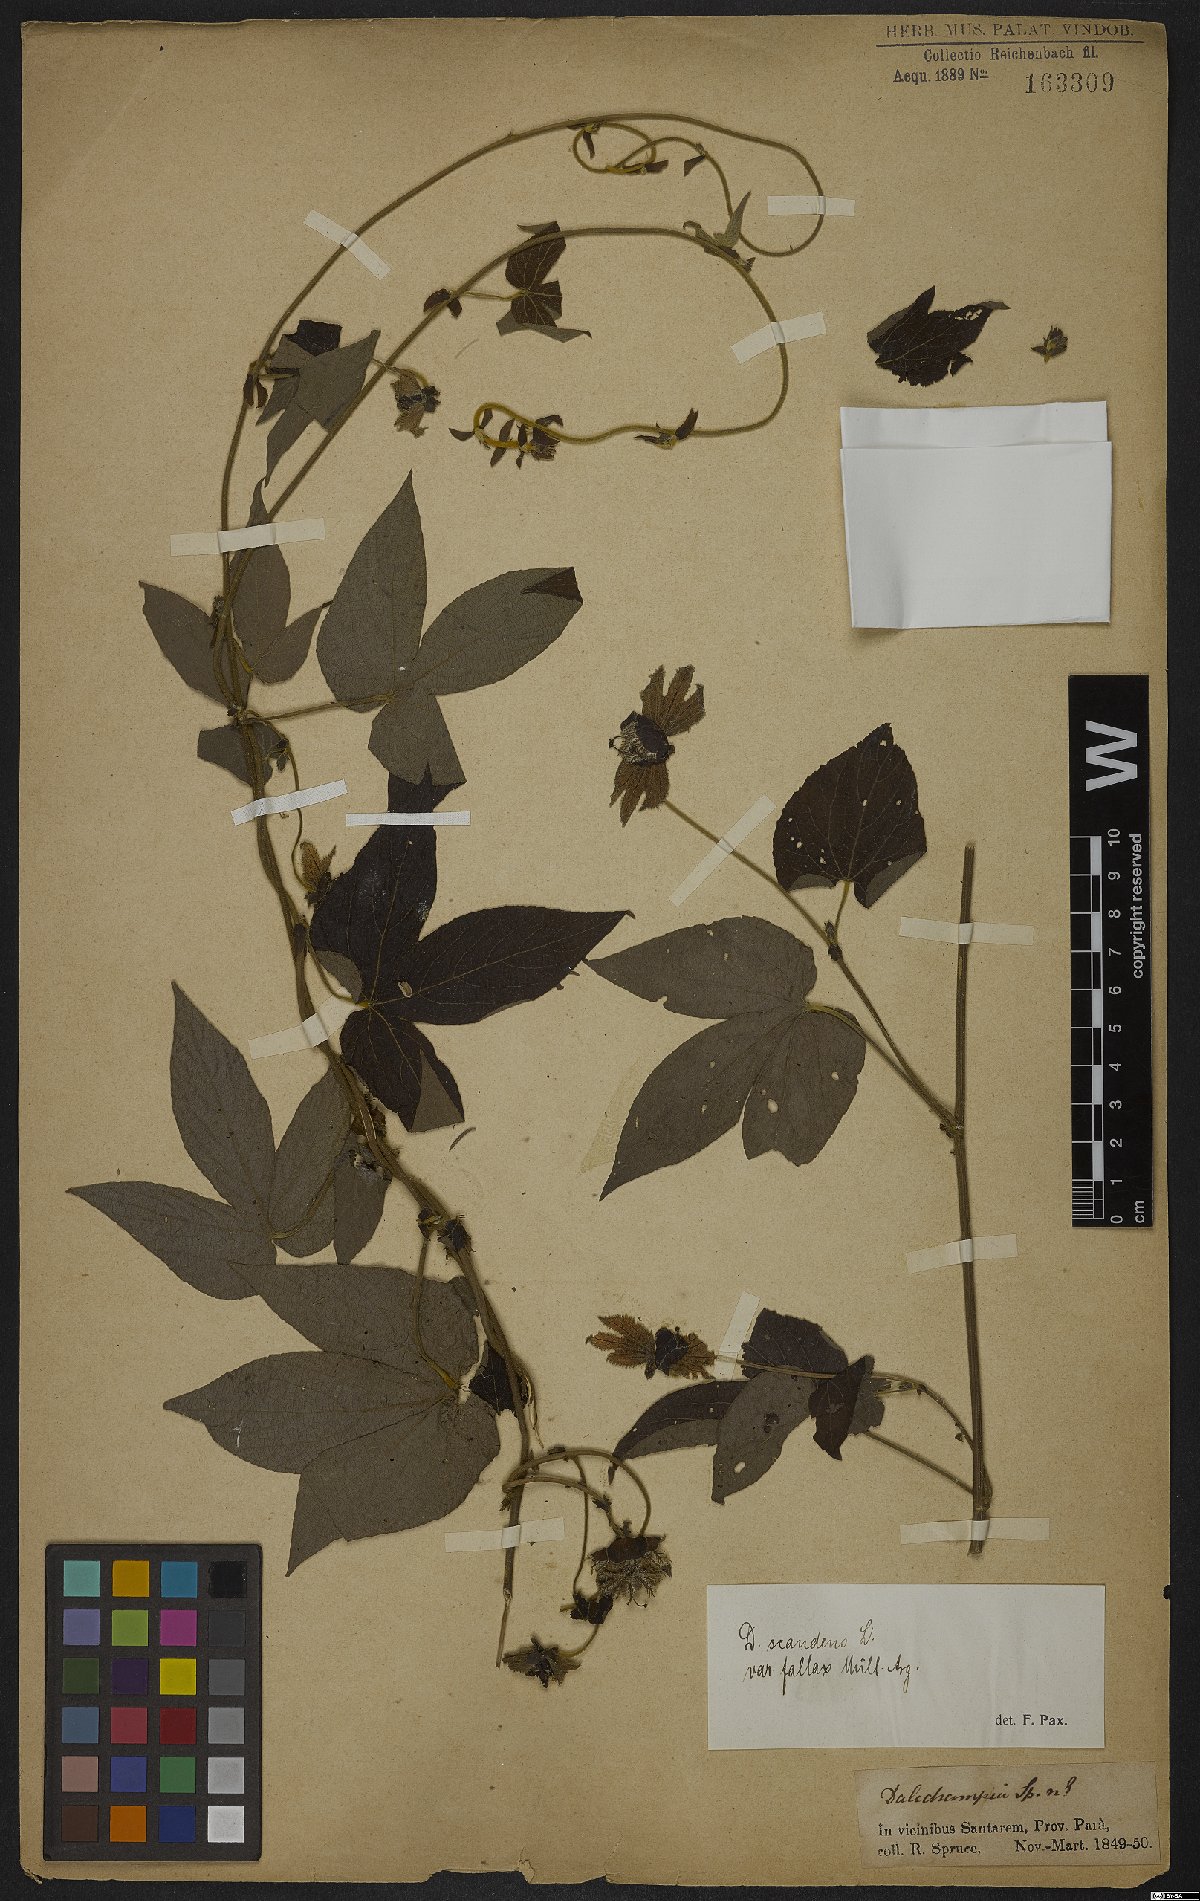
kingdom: Plantae
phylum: Tracheophyta
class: Magnoliopsida
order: Malpighiales
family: Euphorbiaceae
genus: Dalechampia
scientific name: Dalechampia scandens
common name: Spurgecreeper
